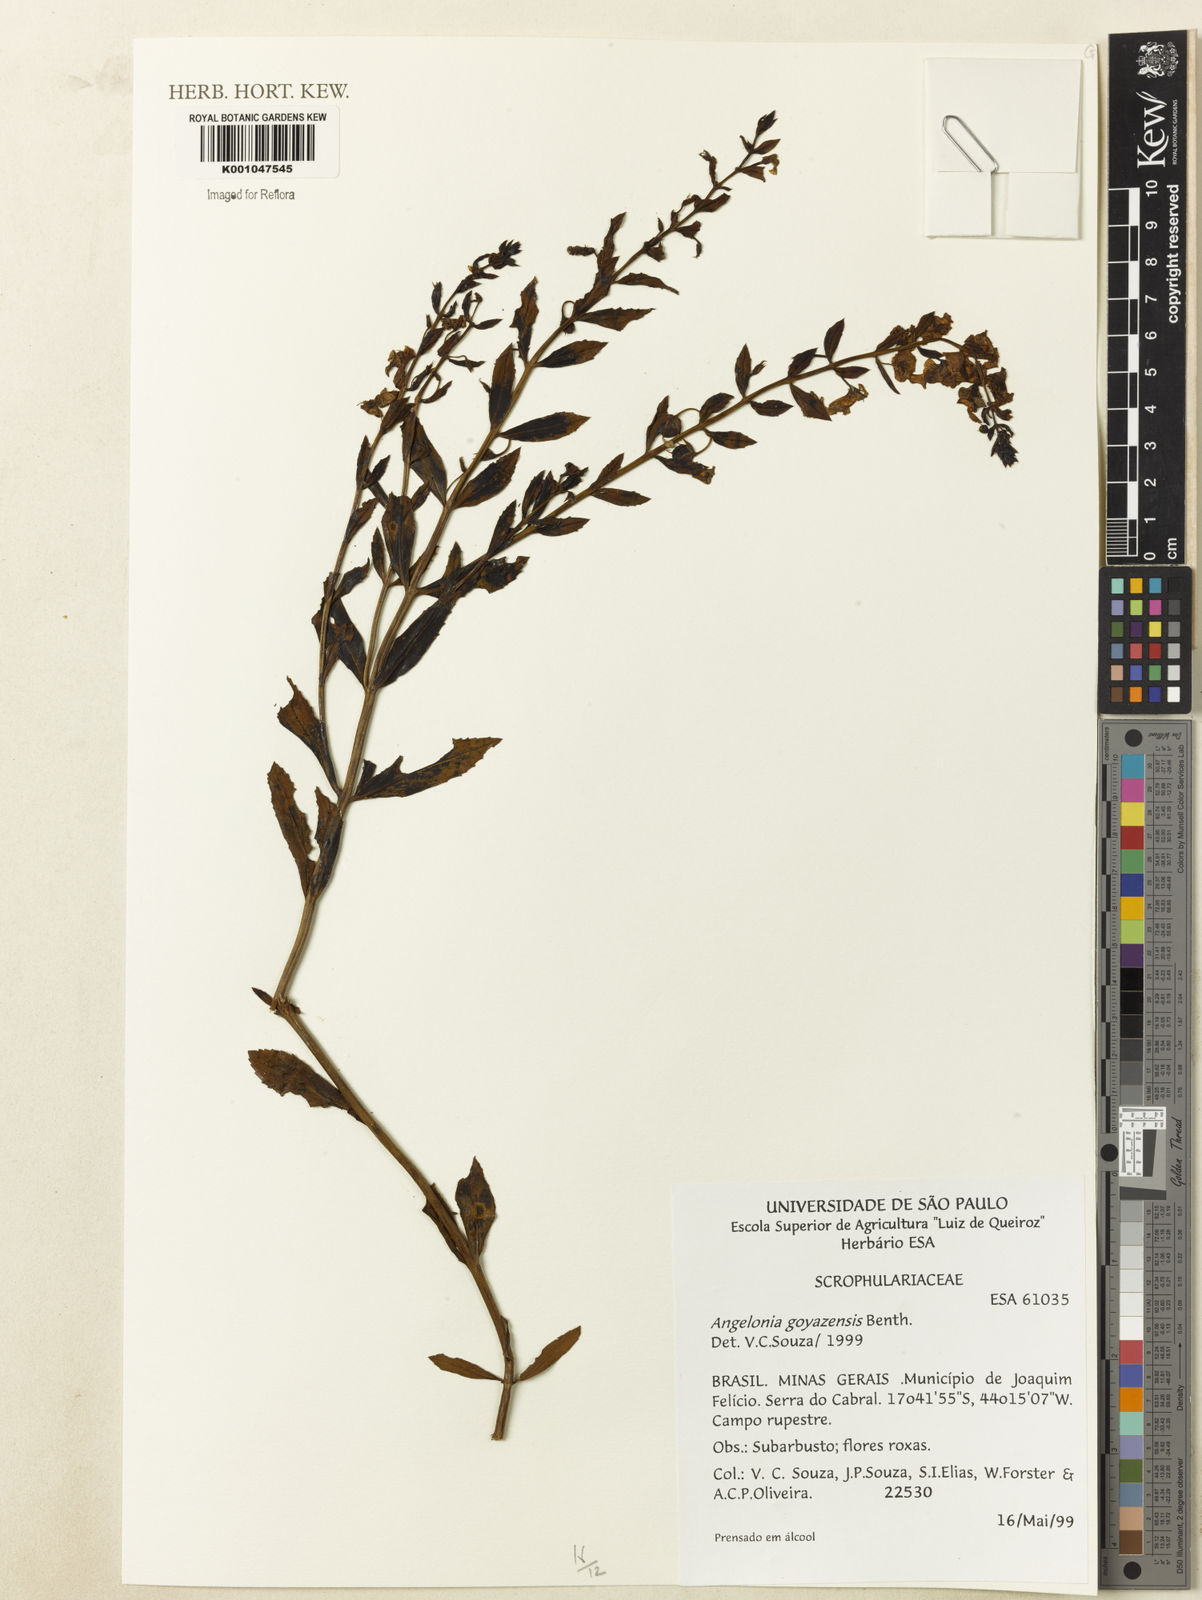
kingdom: Plantae
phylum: Tracheophyta
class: Magnoliopsida
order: Lamiales
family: Plantaginaceae
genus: Angelonia
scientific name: Angelonia goyazensis
